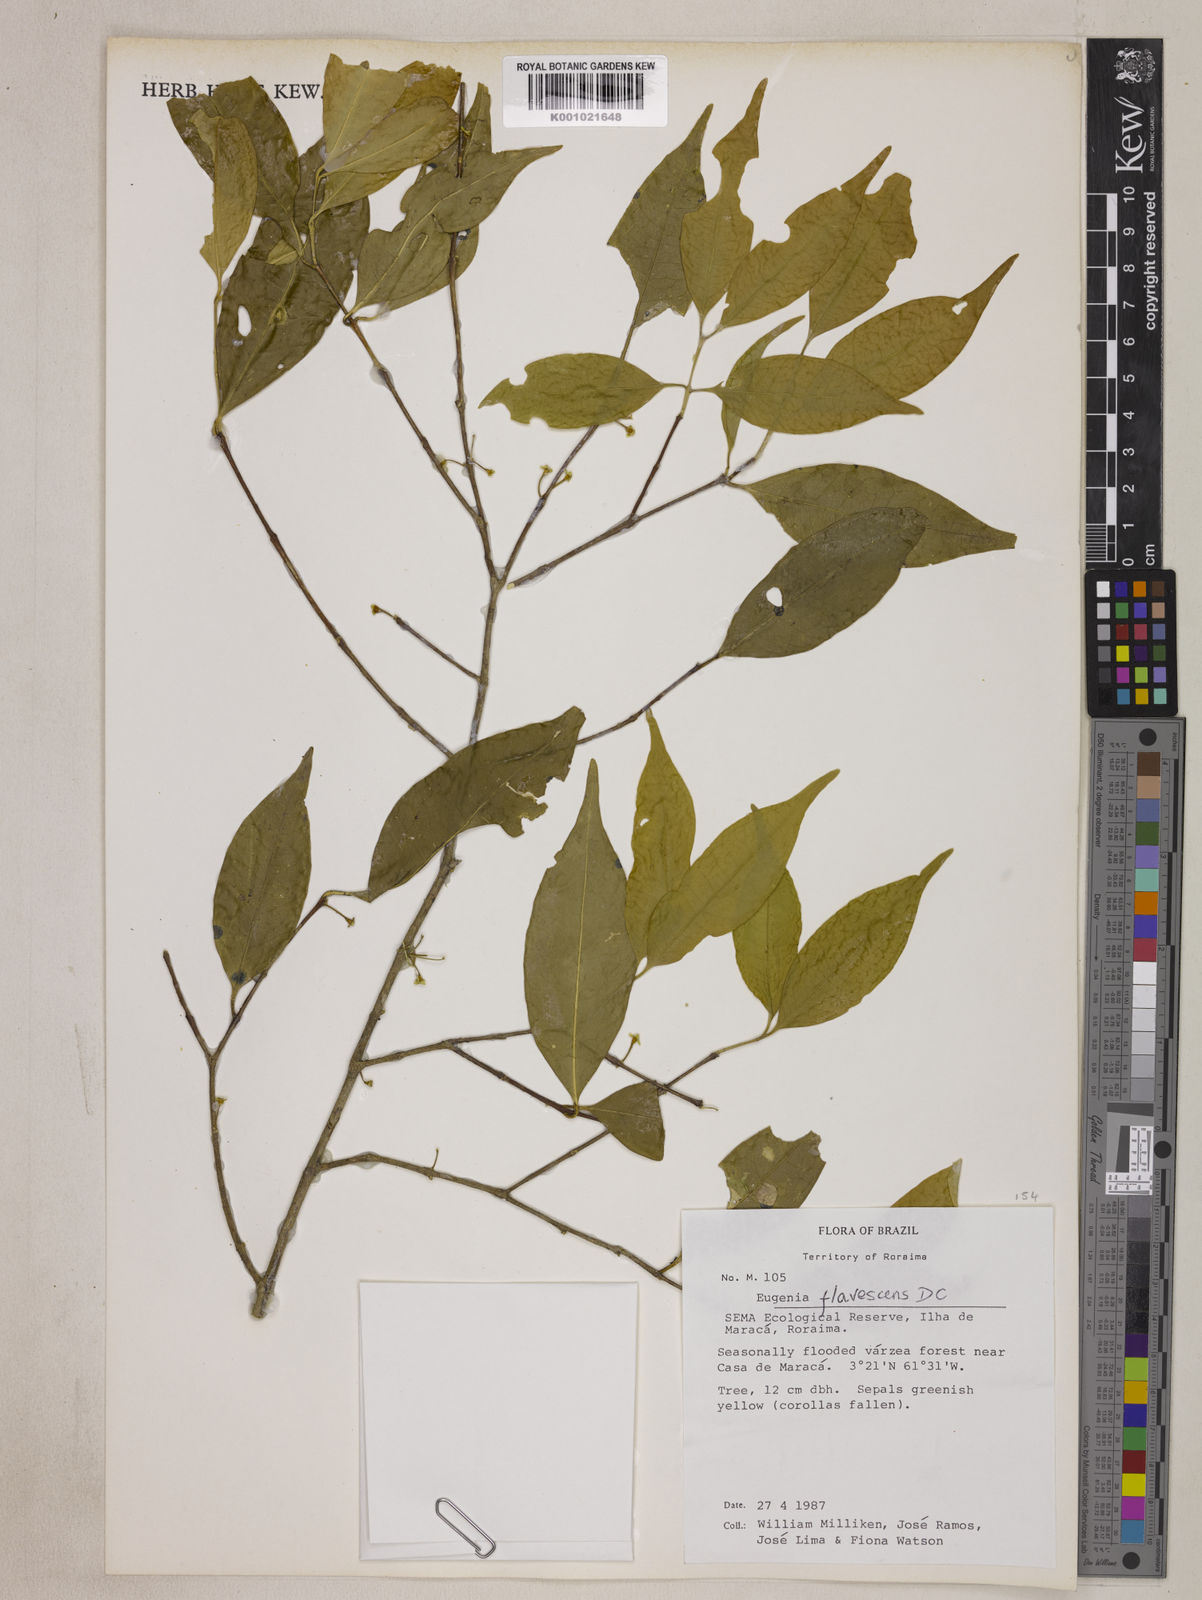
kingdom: Plantae
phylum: Tracheophyta
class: Magnoliopsida
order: Myrtales
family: Myrtaceae
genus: Eugenia
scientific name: Eugenia flavescens
